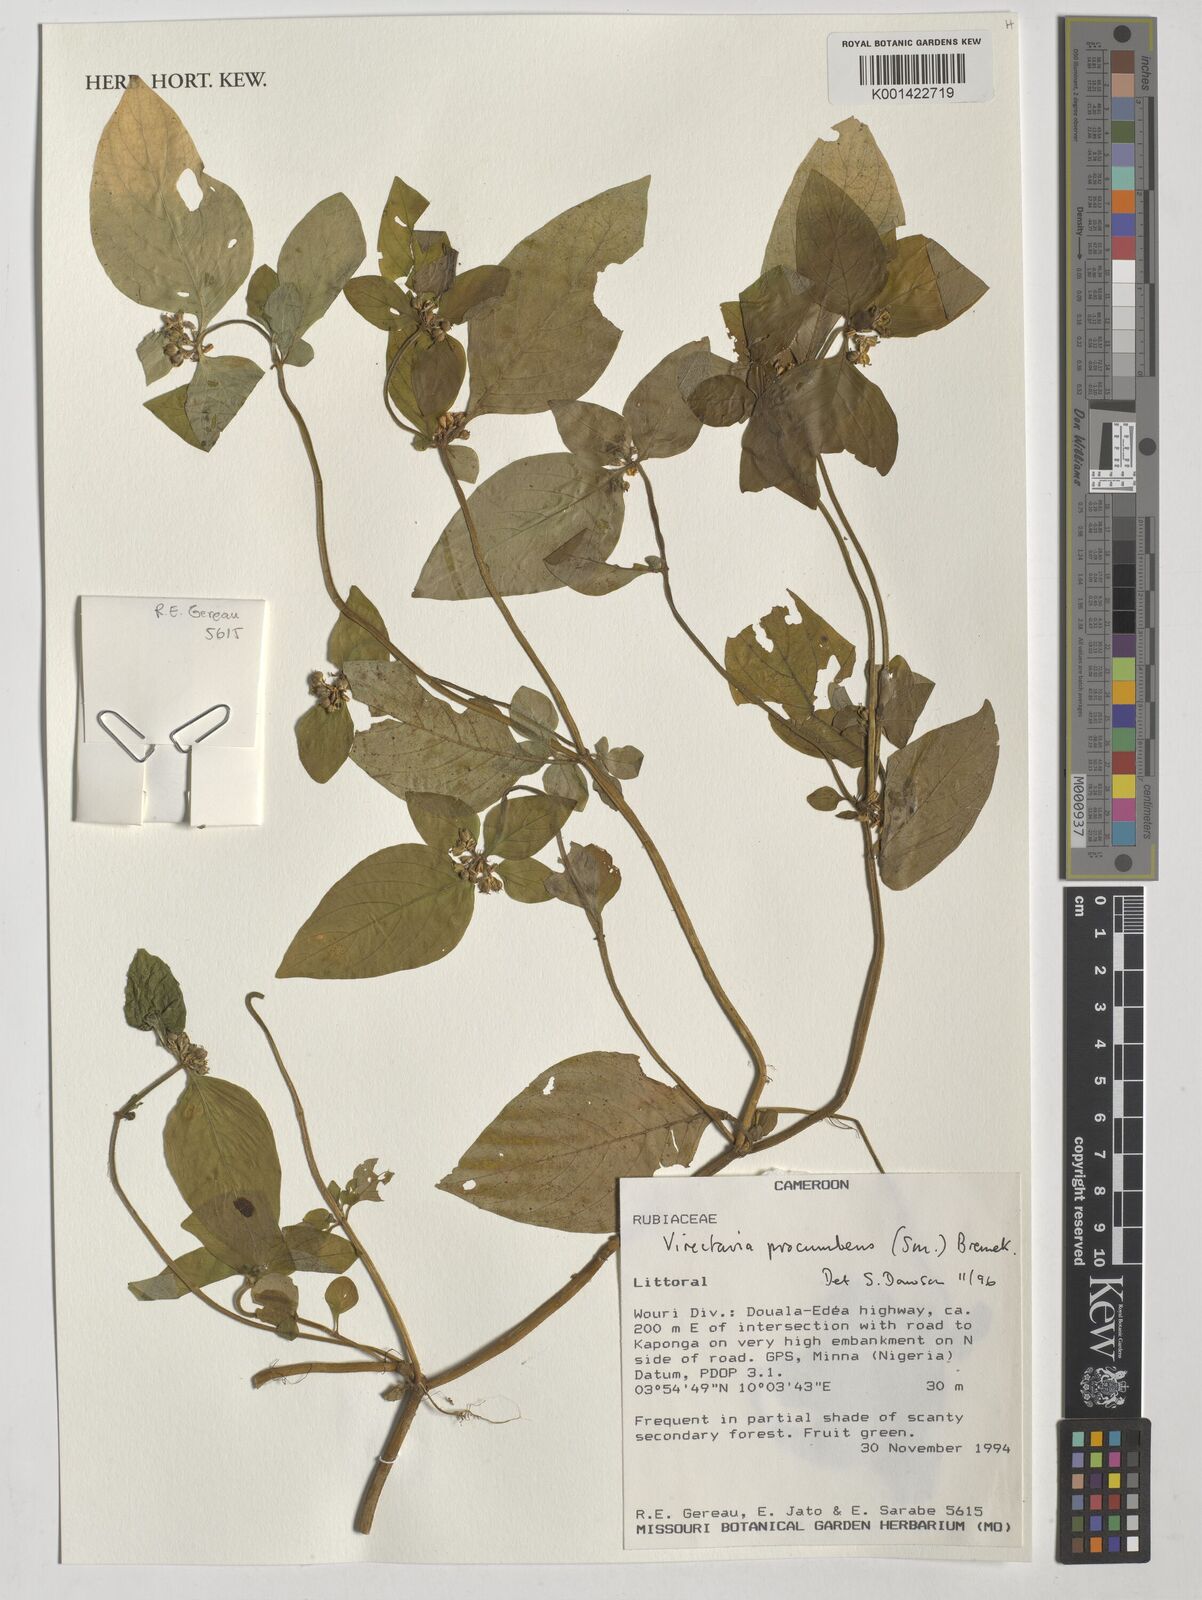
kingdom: Plantae
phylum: Tracheophyta
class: Magnoliopsida
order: Gentianales
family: Rubiaceae
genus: Virectaria
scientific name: Virectaria procumbens
